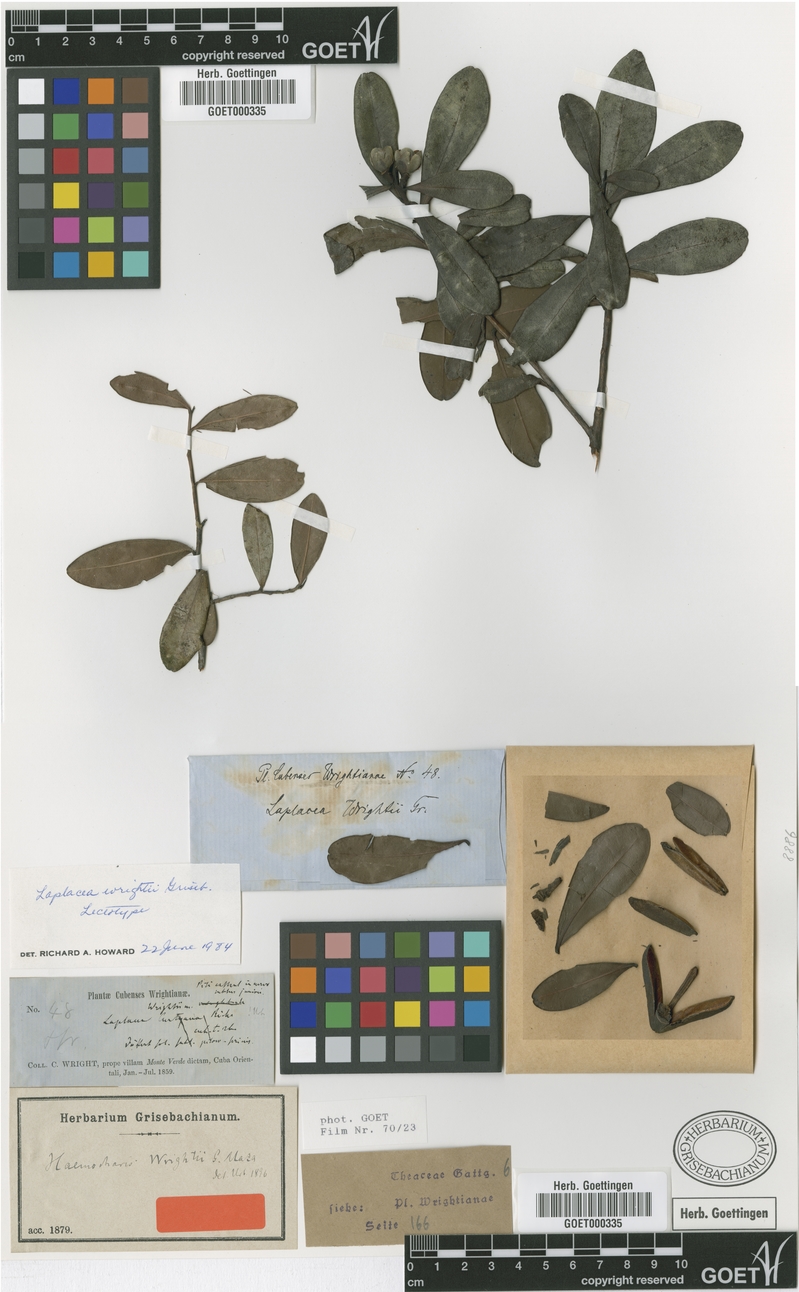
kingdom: Plantae
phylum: Tracheophyta
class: Magnoliopsida
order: Ericales
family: Theaceae
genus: Gordonia
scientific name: Gordonia wrightii
